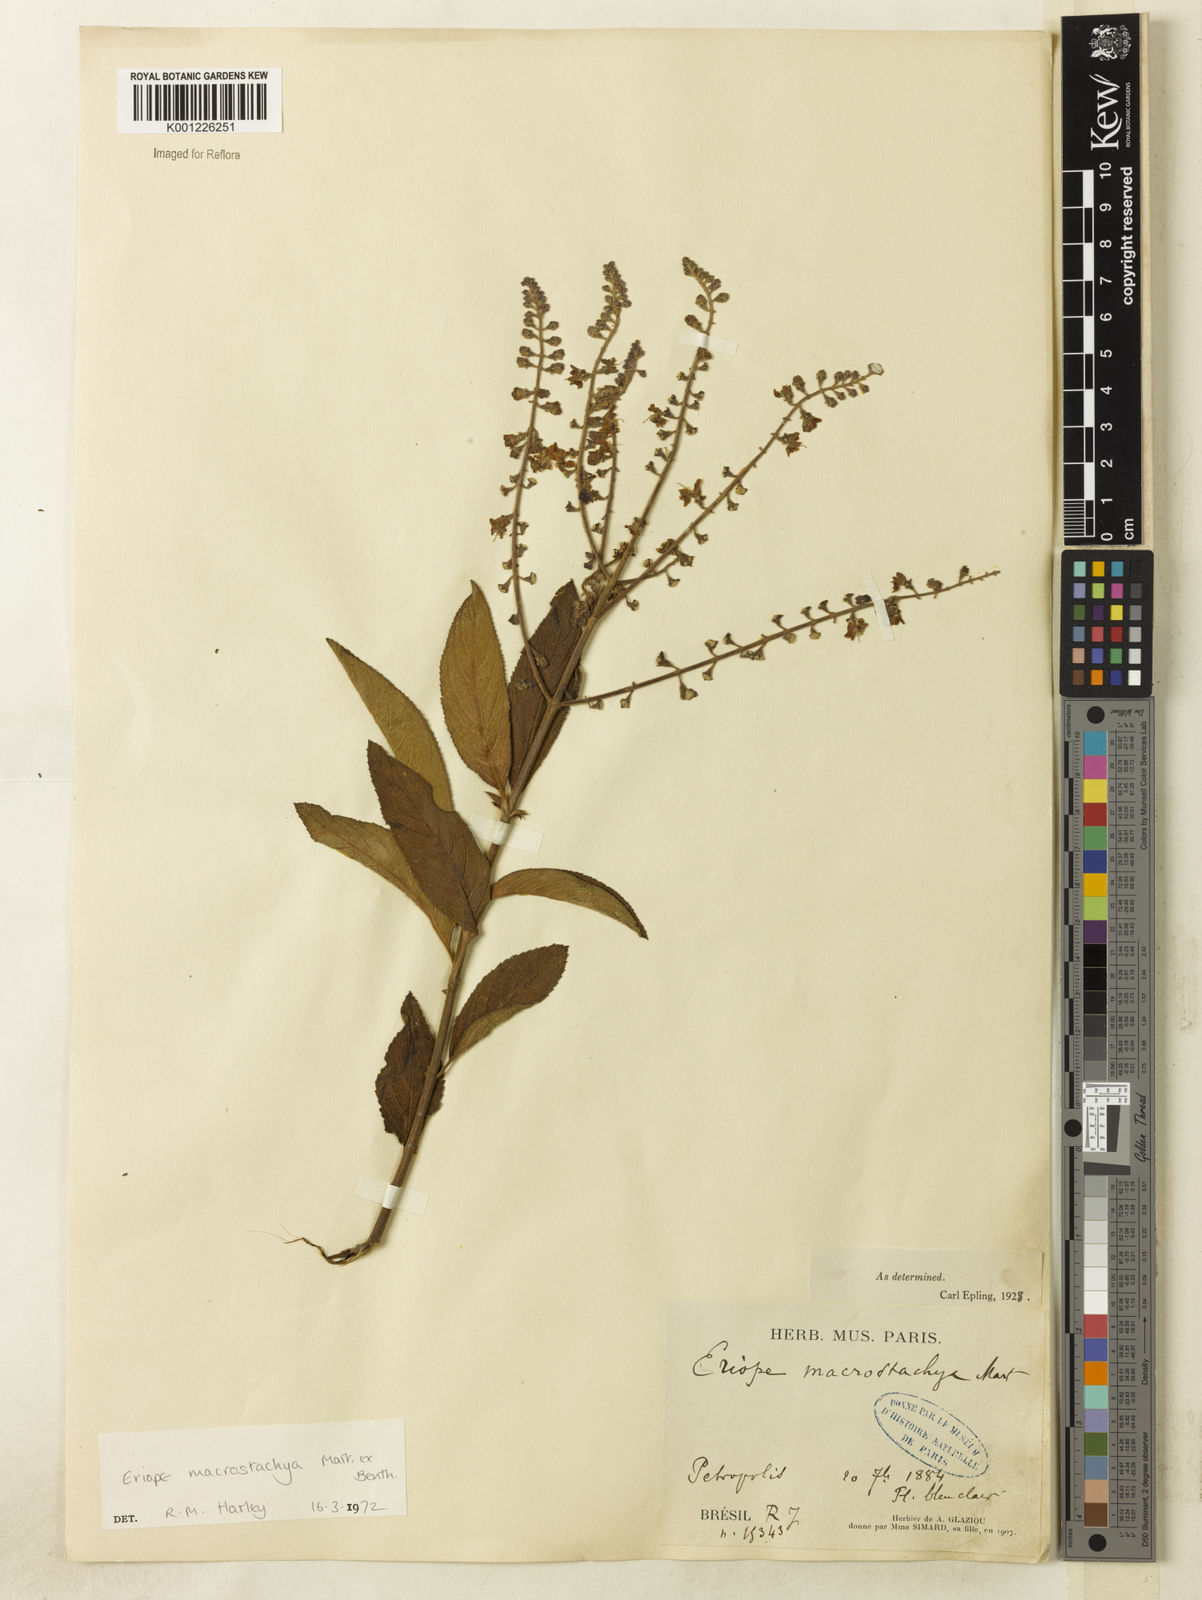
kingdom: Plantae
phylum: Tracheophyta
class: Magnoliopsida
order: Lamiales
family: Lamiaceae
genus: Eriope
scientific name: Eriope macrostachya
